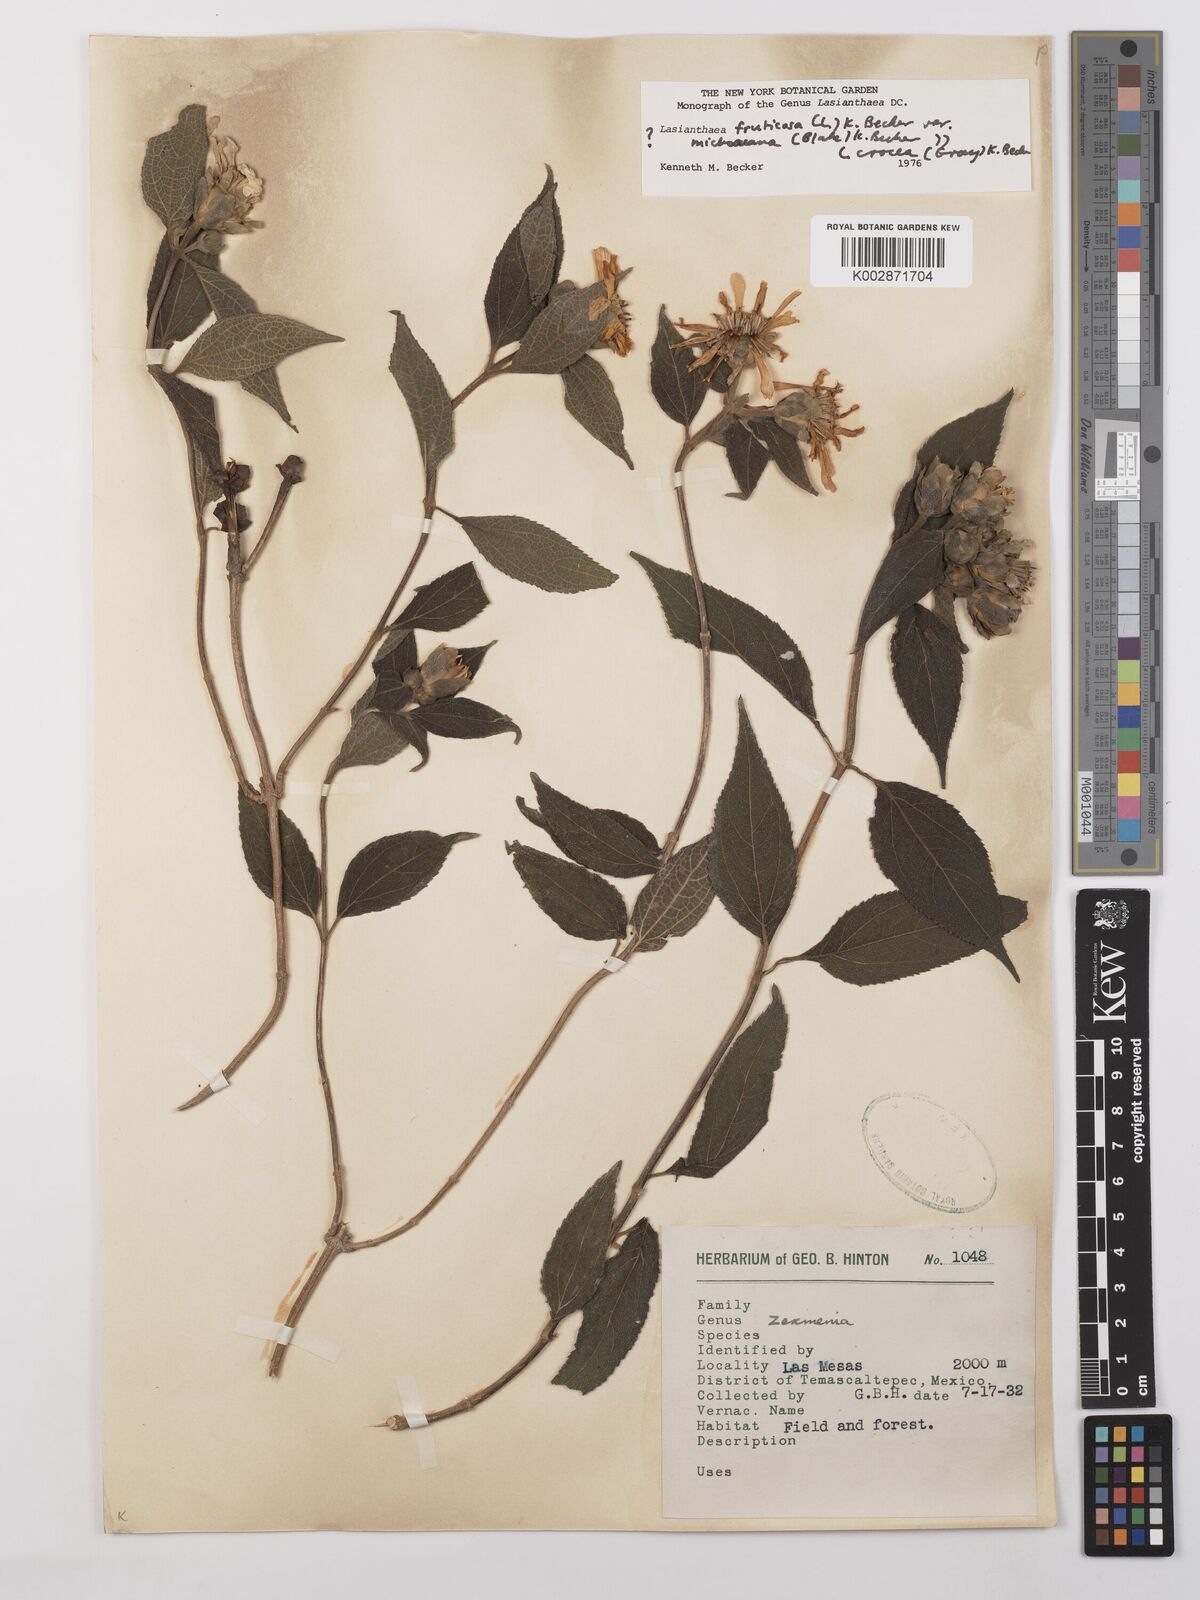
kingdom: Plantae
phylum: Tracheophyta
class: Magnoliopsida
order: Asterales
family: Asteraceae
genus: Lasianthaea
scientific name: Lasianthaea fruticosa
